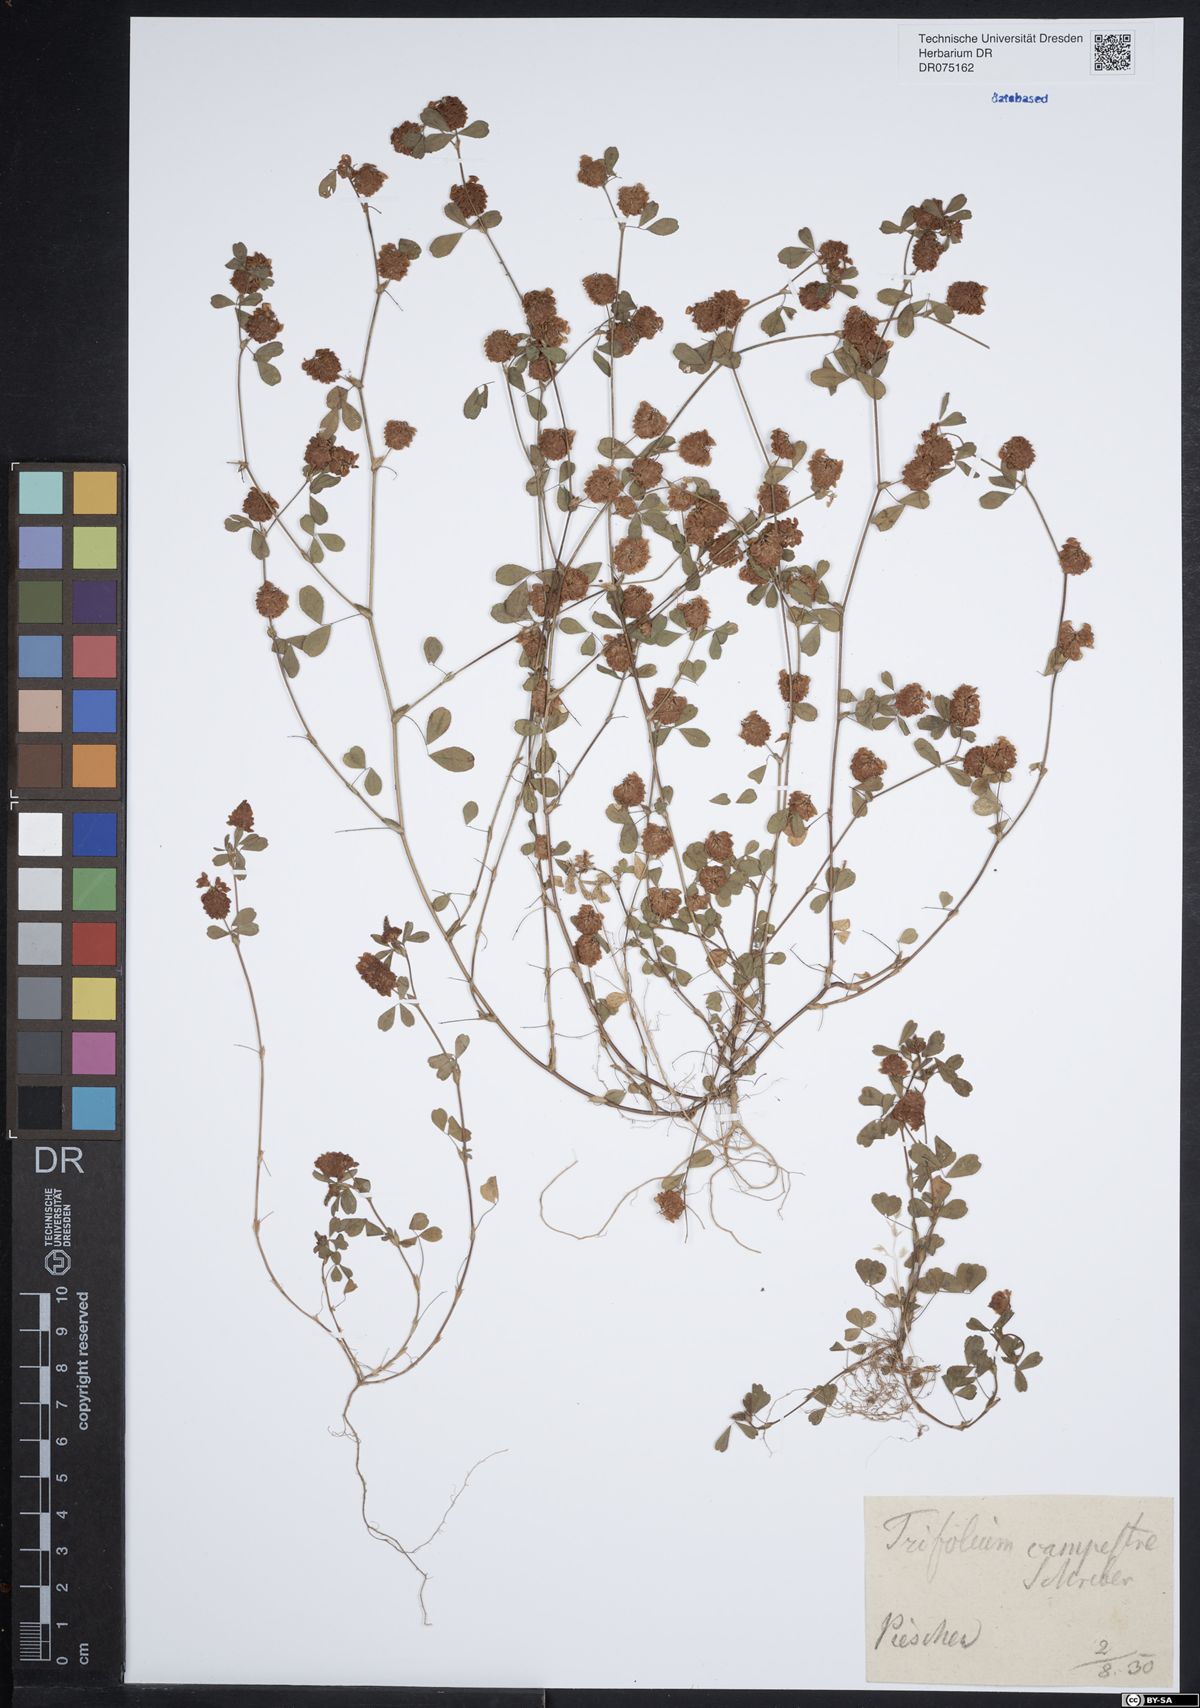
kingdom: Plantae
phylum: Tracheophyta
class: Magnoliopsida
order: Fabales
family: Fabaceae
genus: Trifolium
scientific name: Trifolium campestre
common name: Field clover
